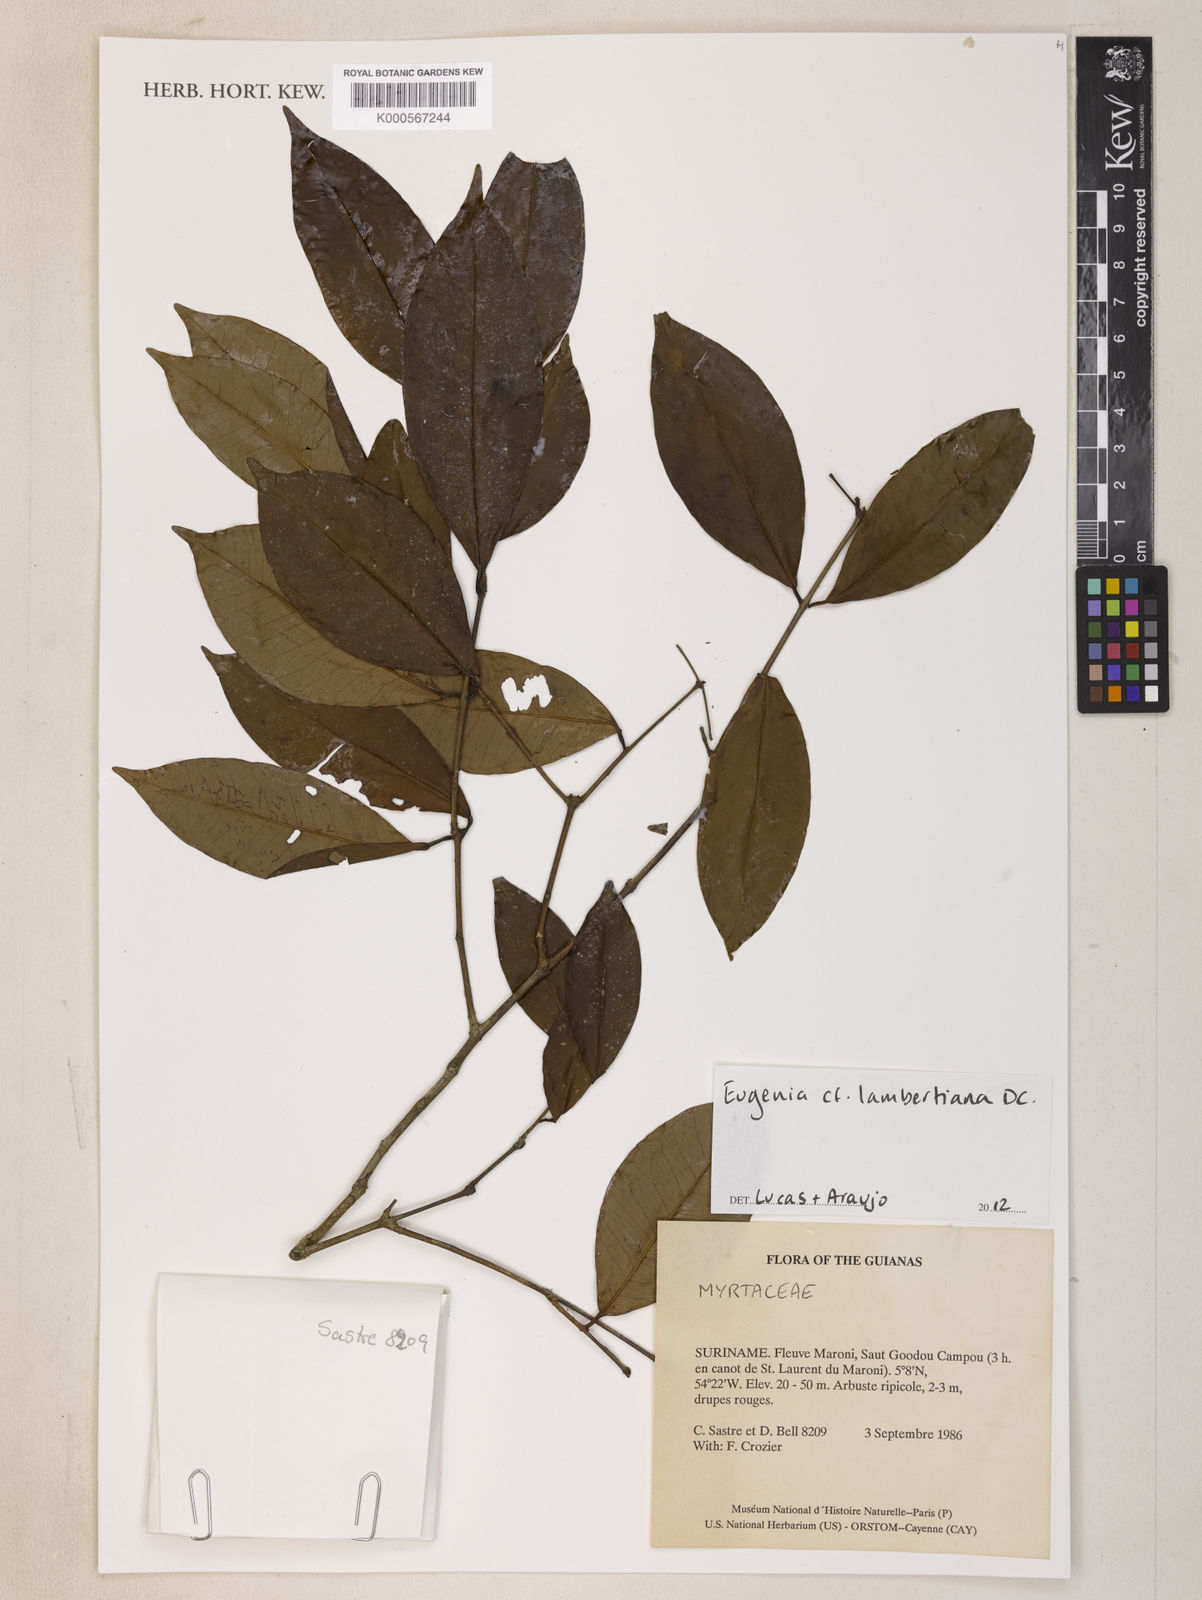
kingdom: Plantae
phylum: Tracheophyta
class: Magnoliopsida
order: Myrtales
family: Myrtaceae
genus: Eugenia
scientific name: Eugenia lambertiana
